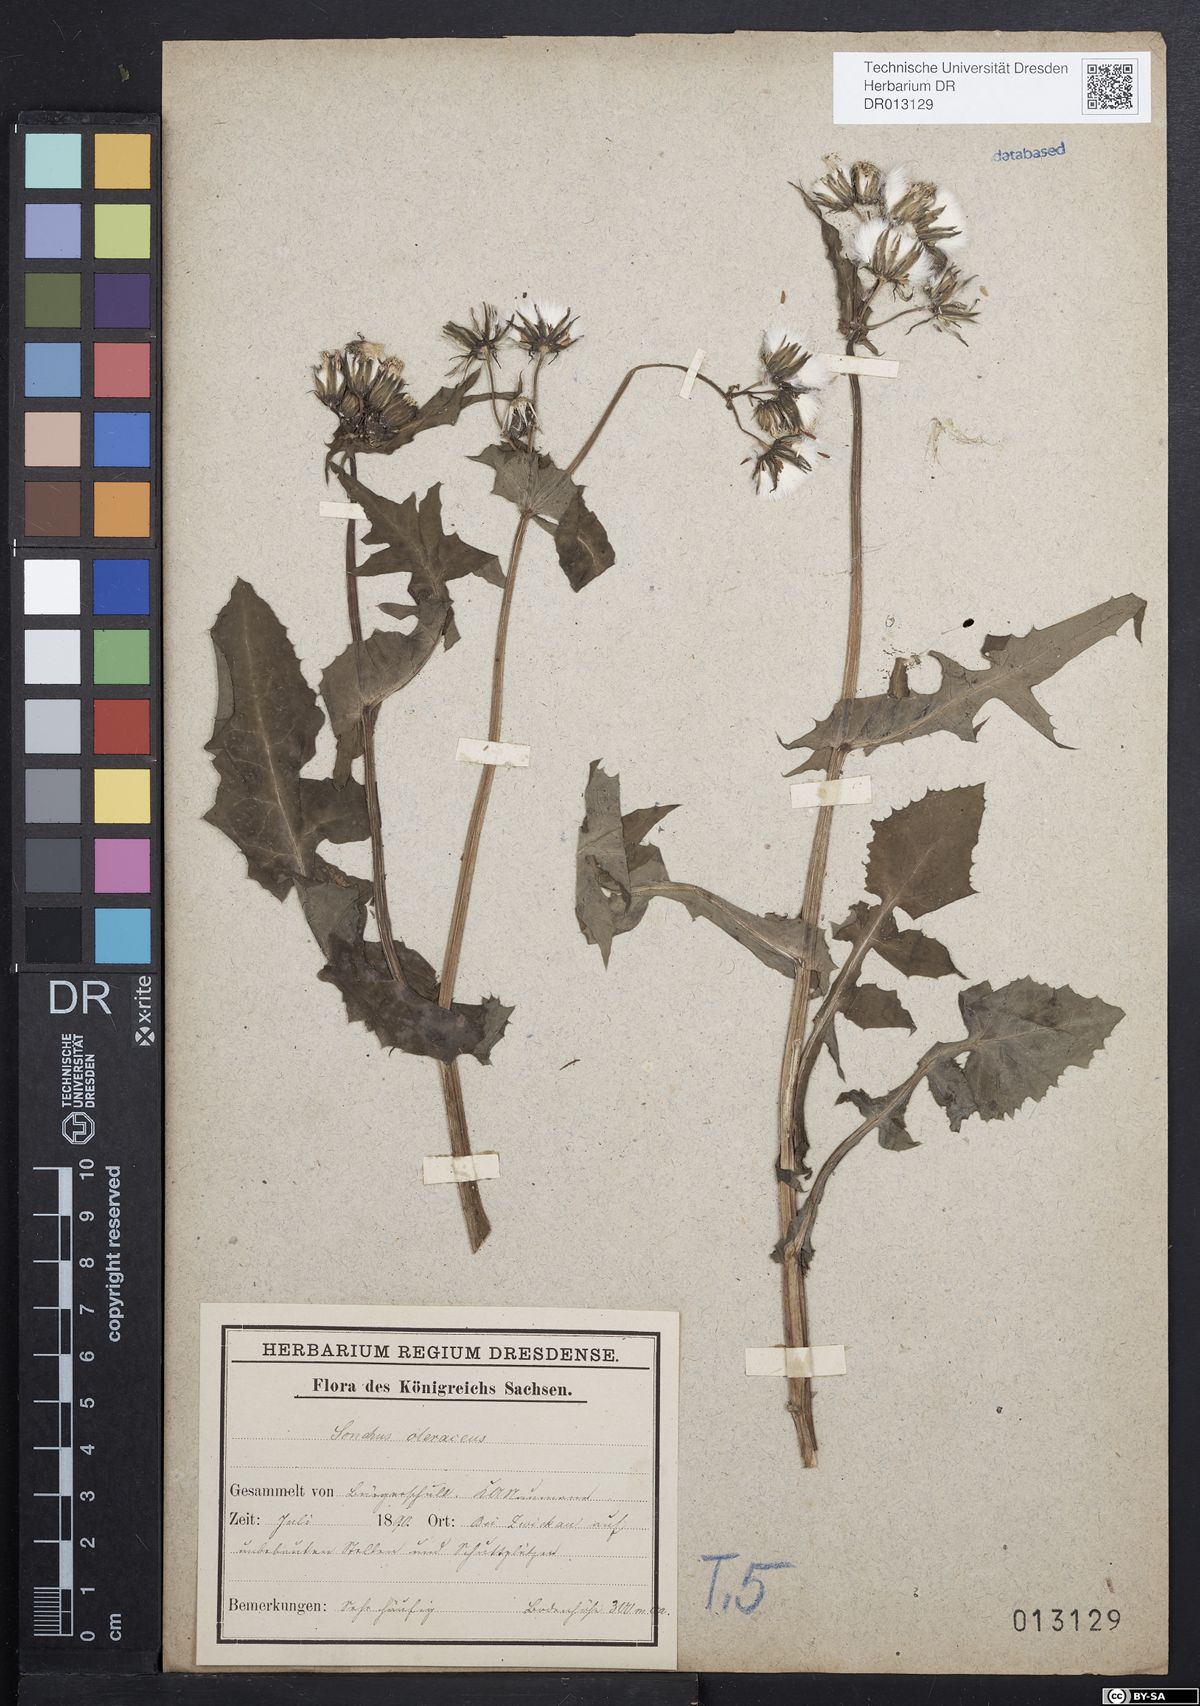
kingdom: Plantae
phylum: Tracheophyta
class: Magnoliopsida
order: Asterales
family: Asteraceae
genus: Sonchus
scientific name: Sonchus oleraceus
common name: Common sowthistle
